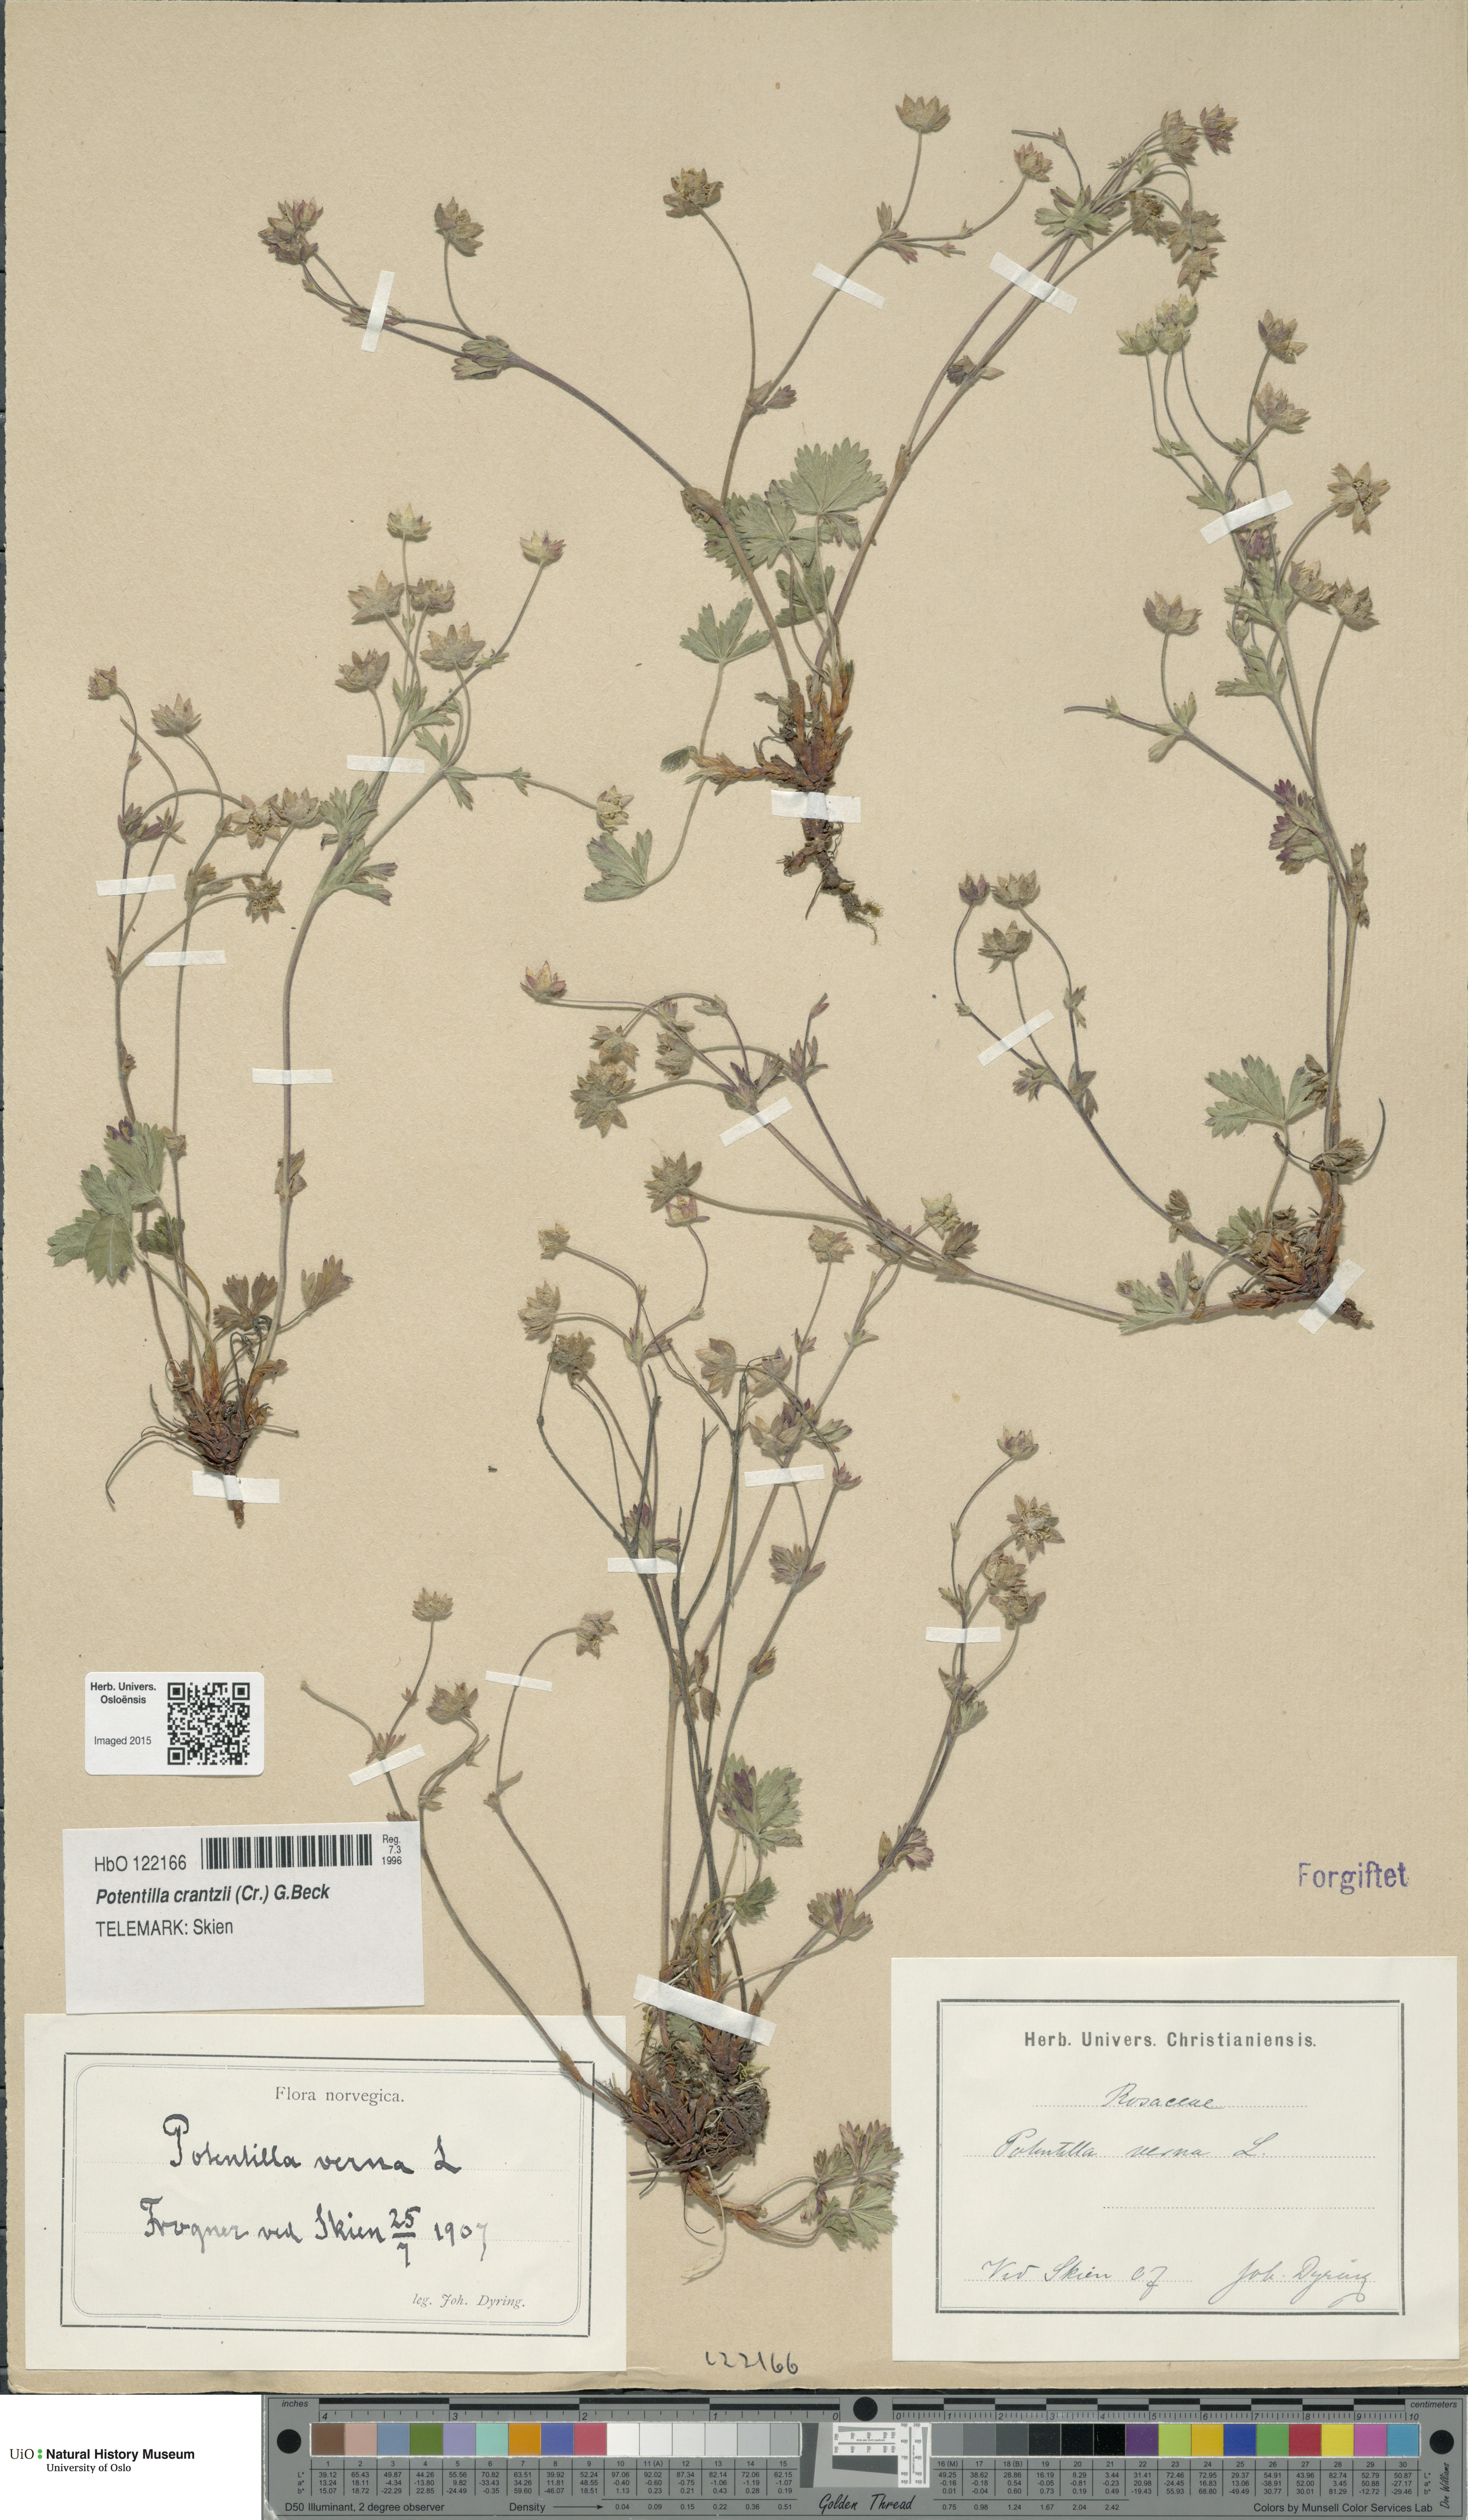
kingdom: Plantae
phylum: Tracheophyta
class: Magnoliopsida
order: Rosales
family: Rosaceae
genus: Potentilla
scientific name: Potentilla verna
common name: Spring cinquefoil
